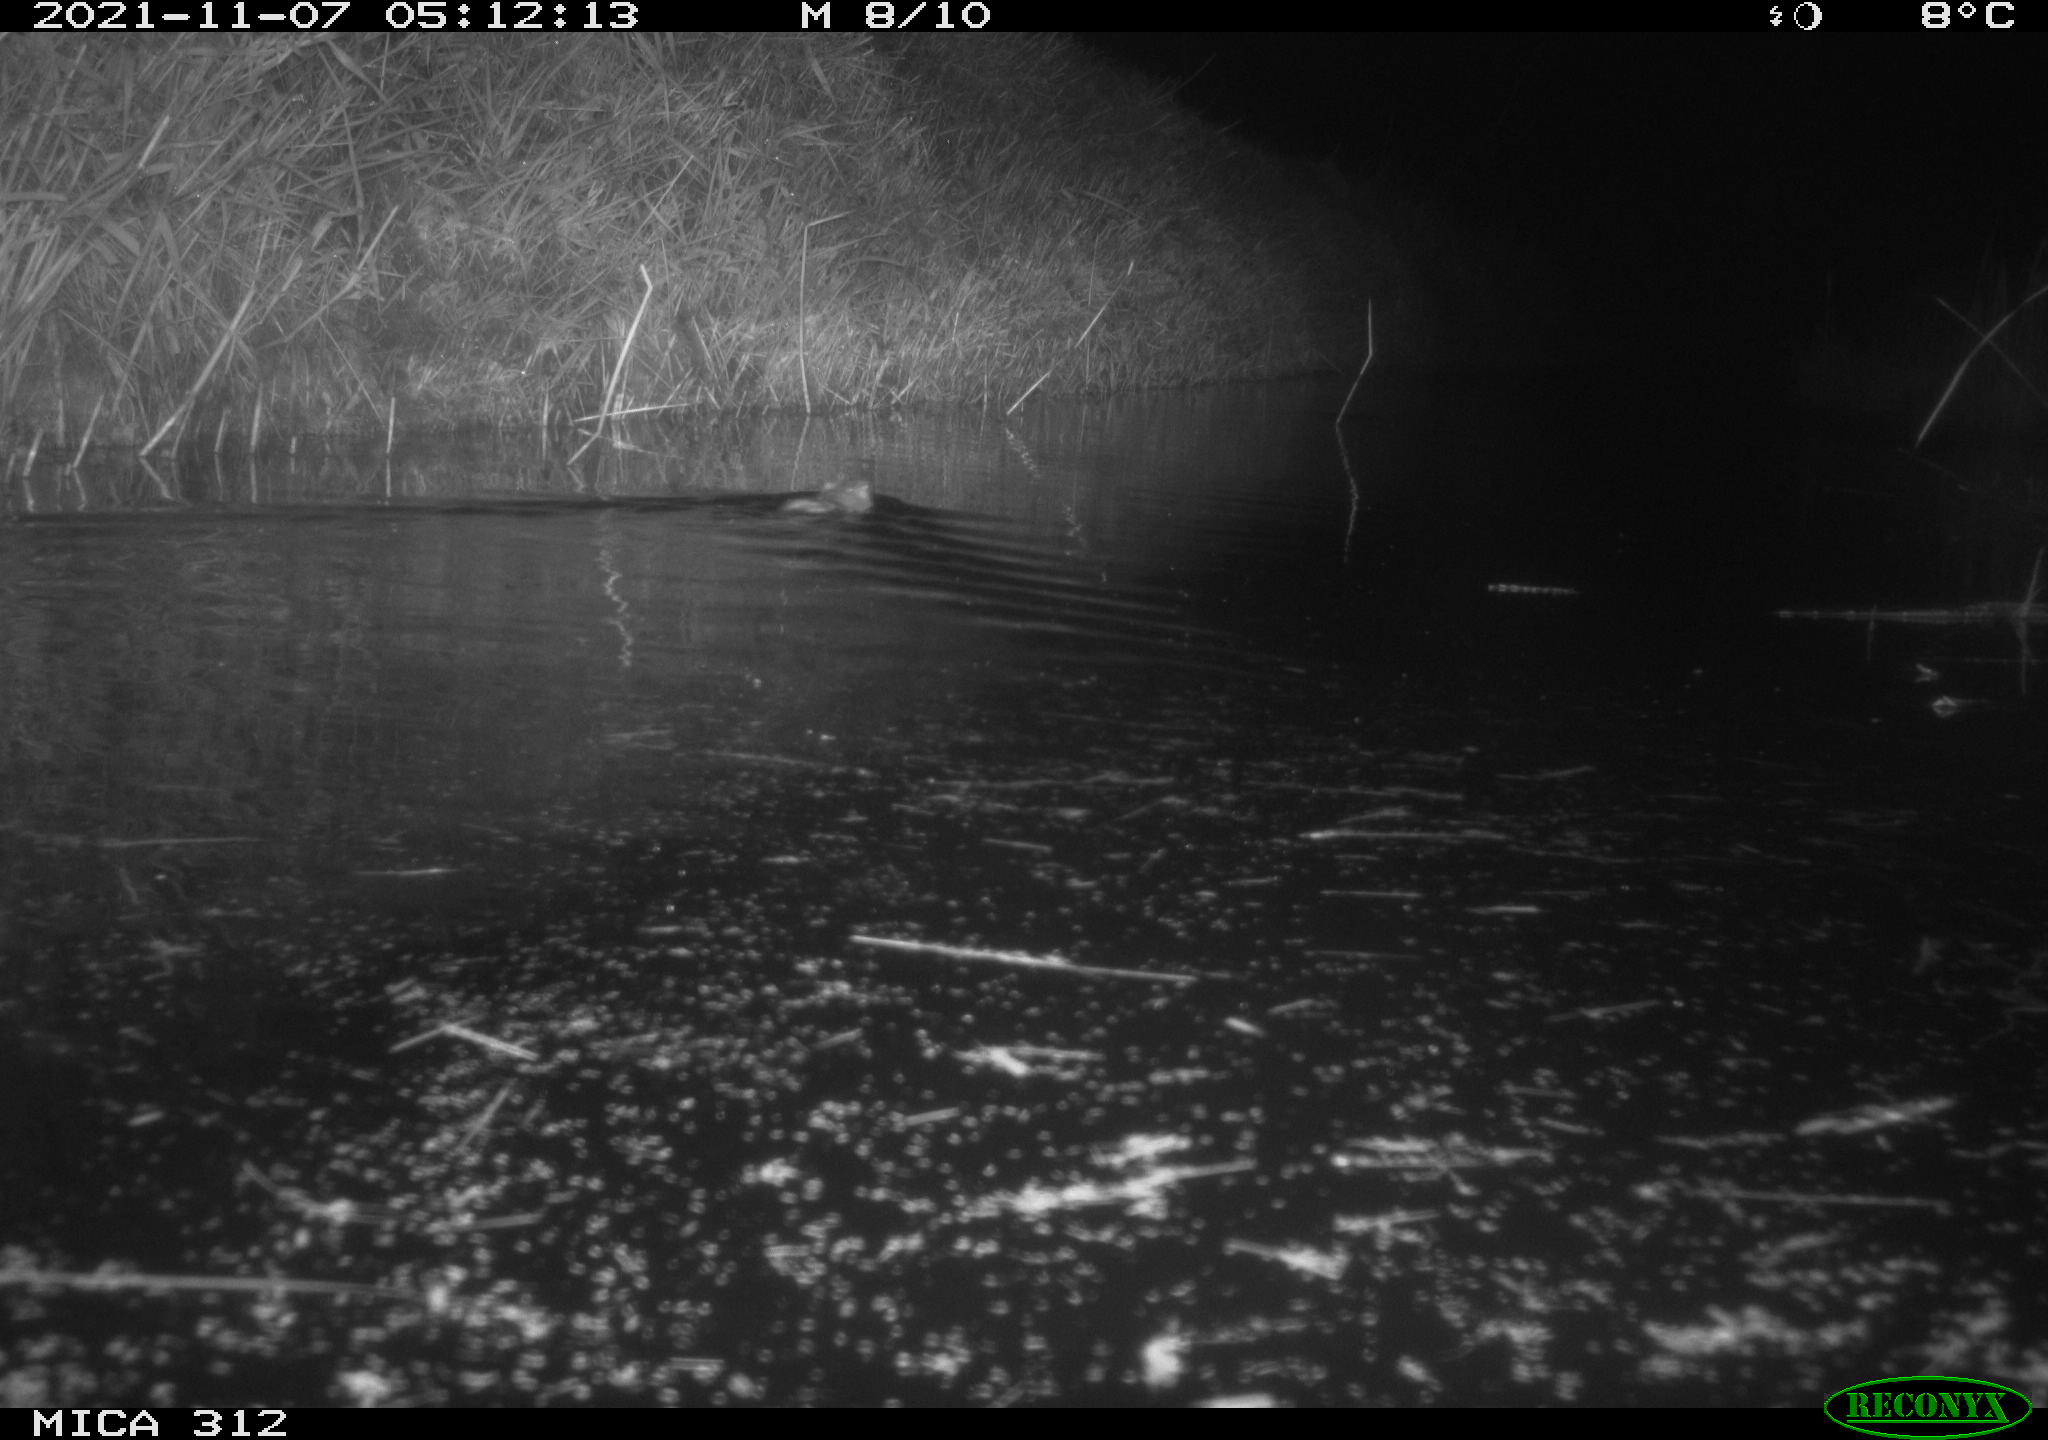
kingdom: Animalia
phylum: Chordata
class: Mammalia
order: Rodentia
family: Cricetidae
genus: Ondatra
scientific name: Ondatra zibethicus
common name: Muskrat
